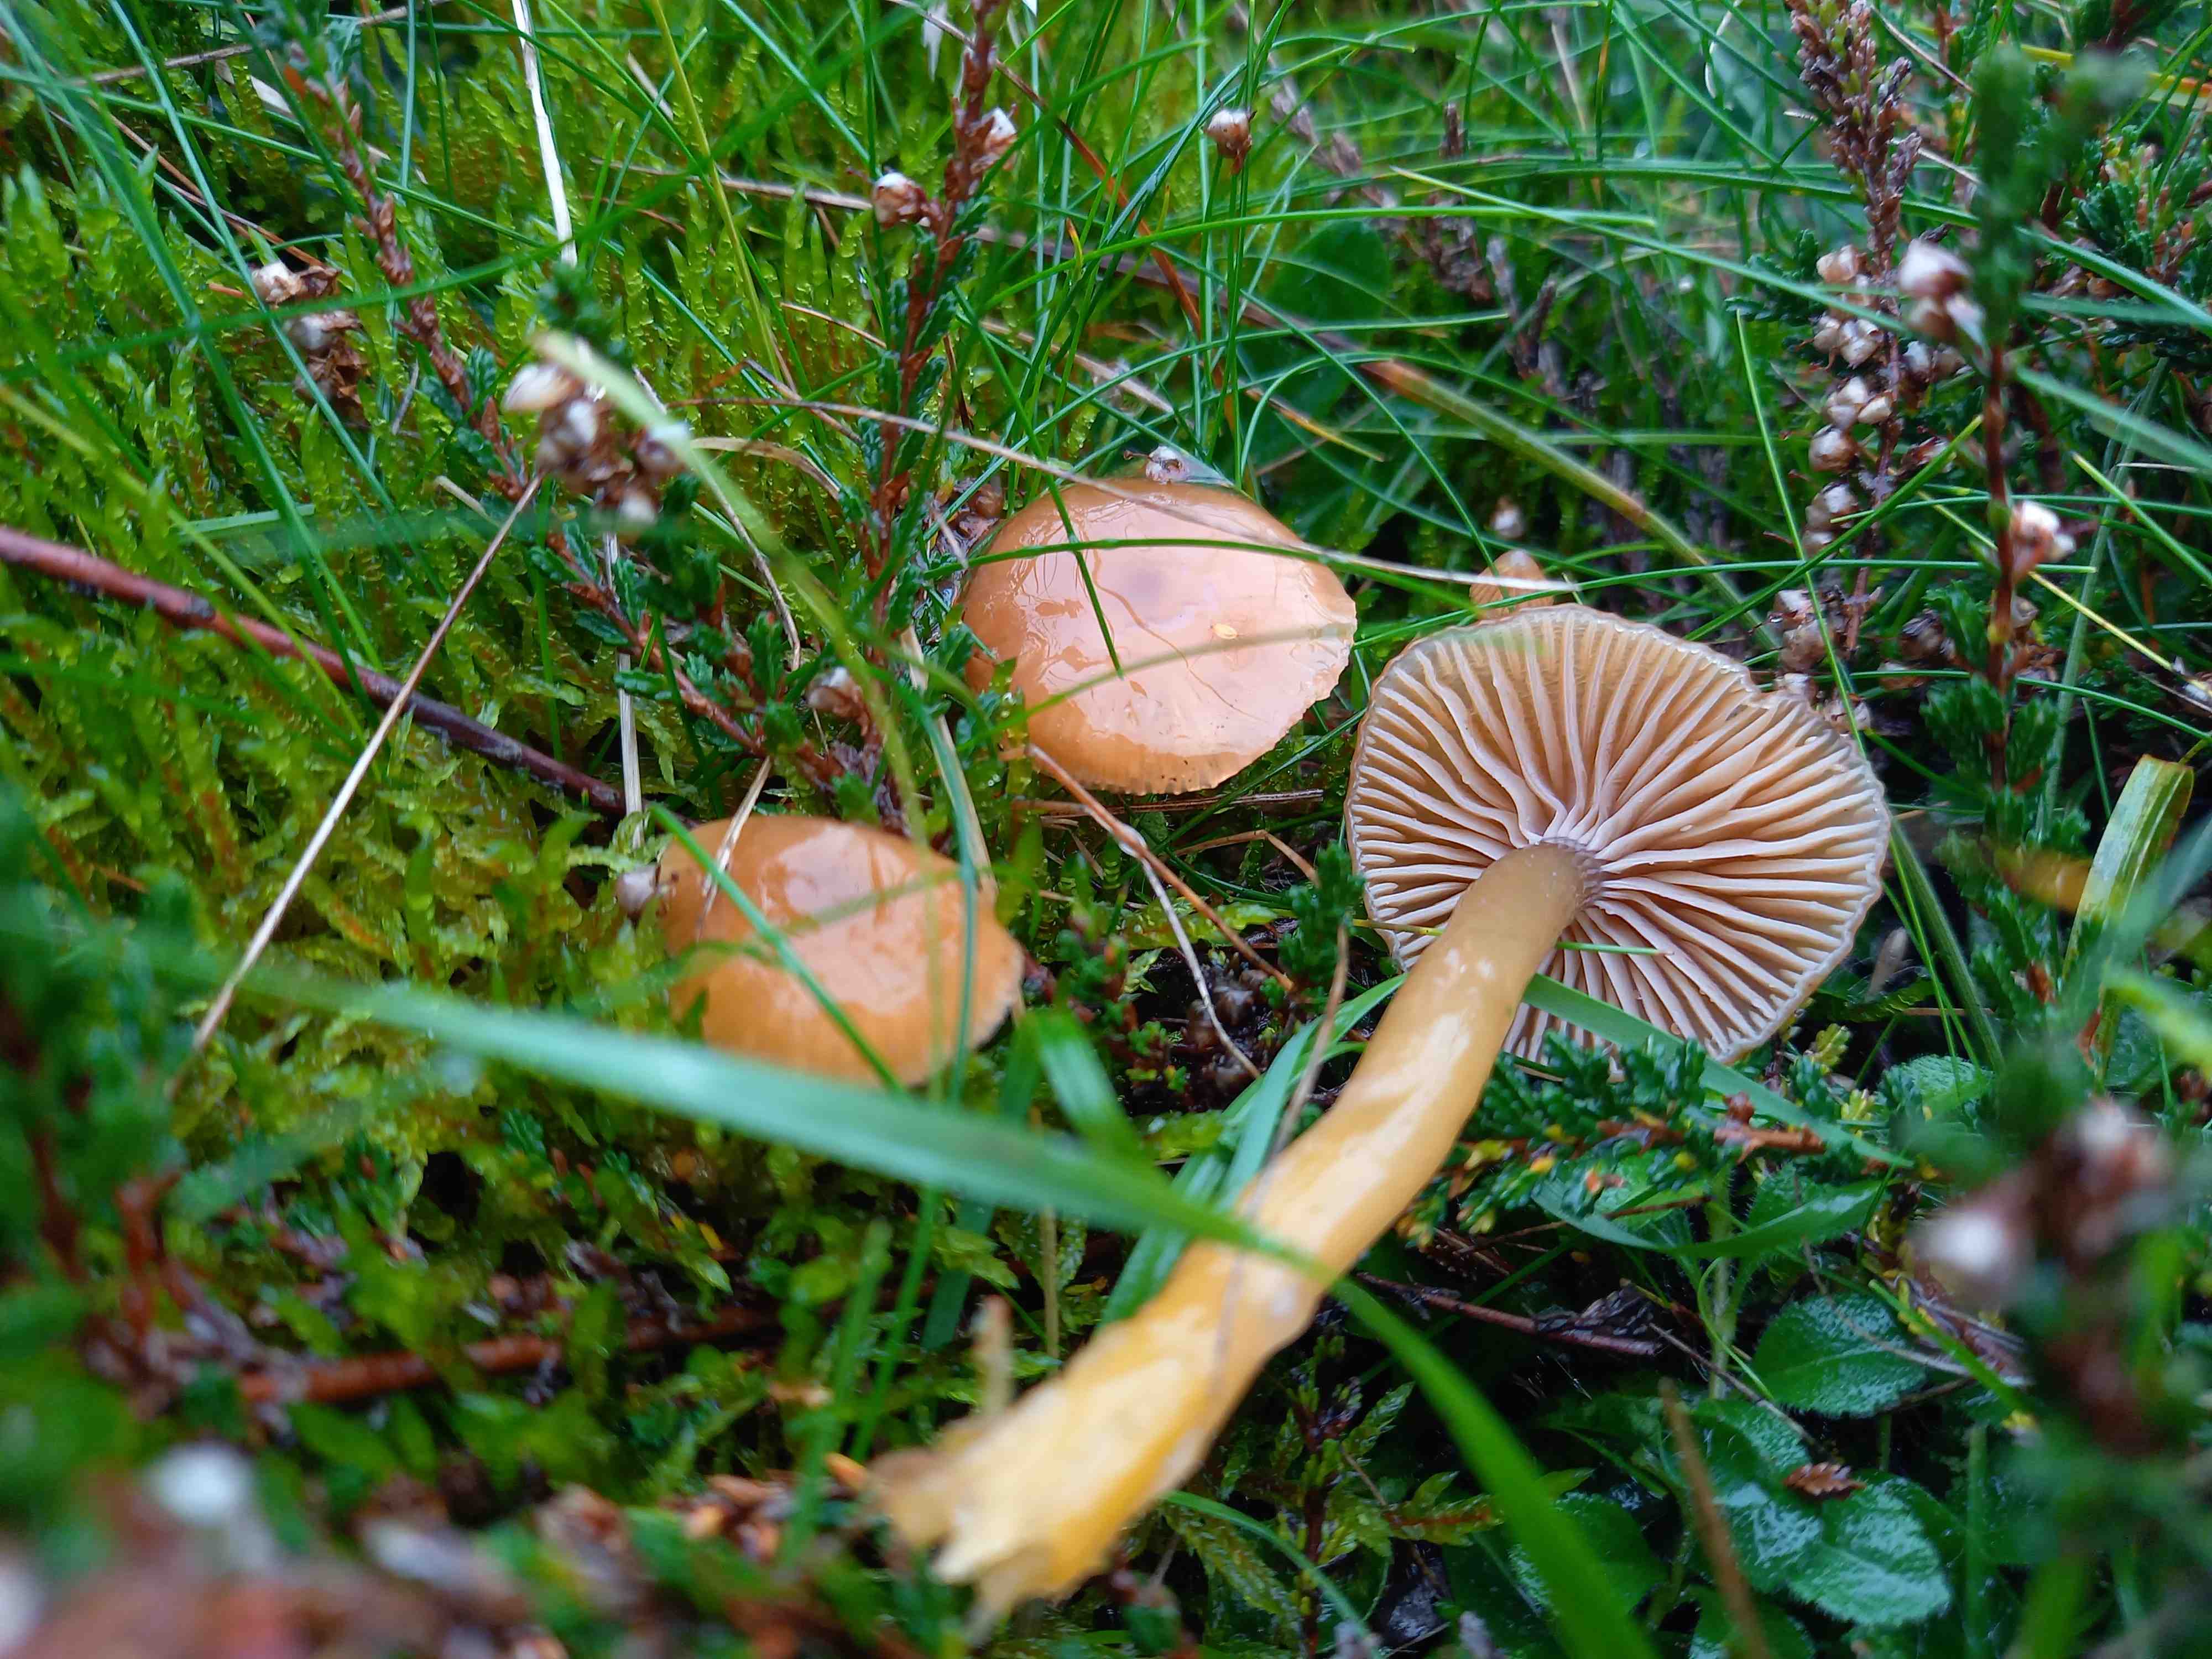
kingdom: Fungi
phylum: Basidiomycota
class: Agaricomycetes
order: Agaricales
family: Hygrophoraceae
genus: Gliophorus
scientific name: Gliophorus laetus
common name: brusk-vokshat
